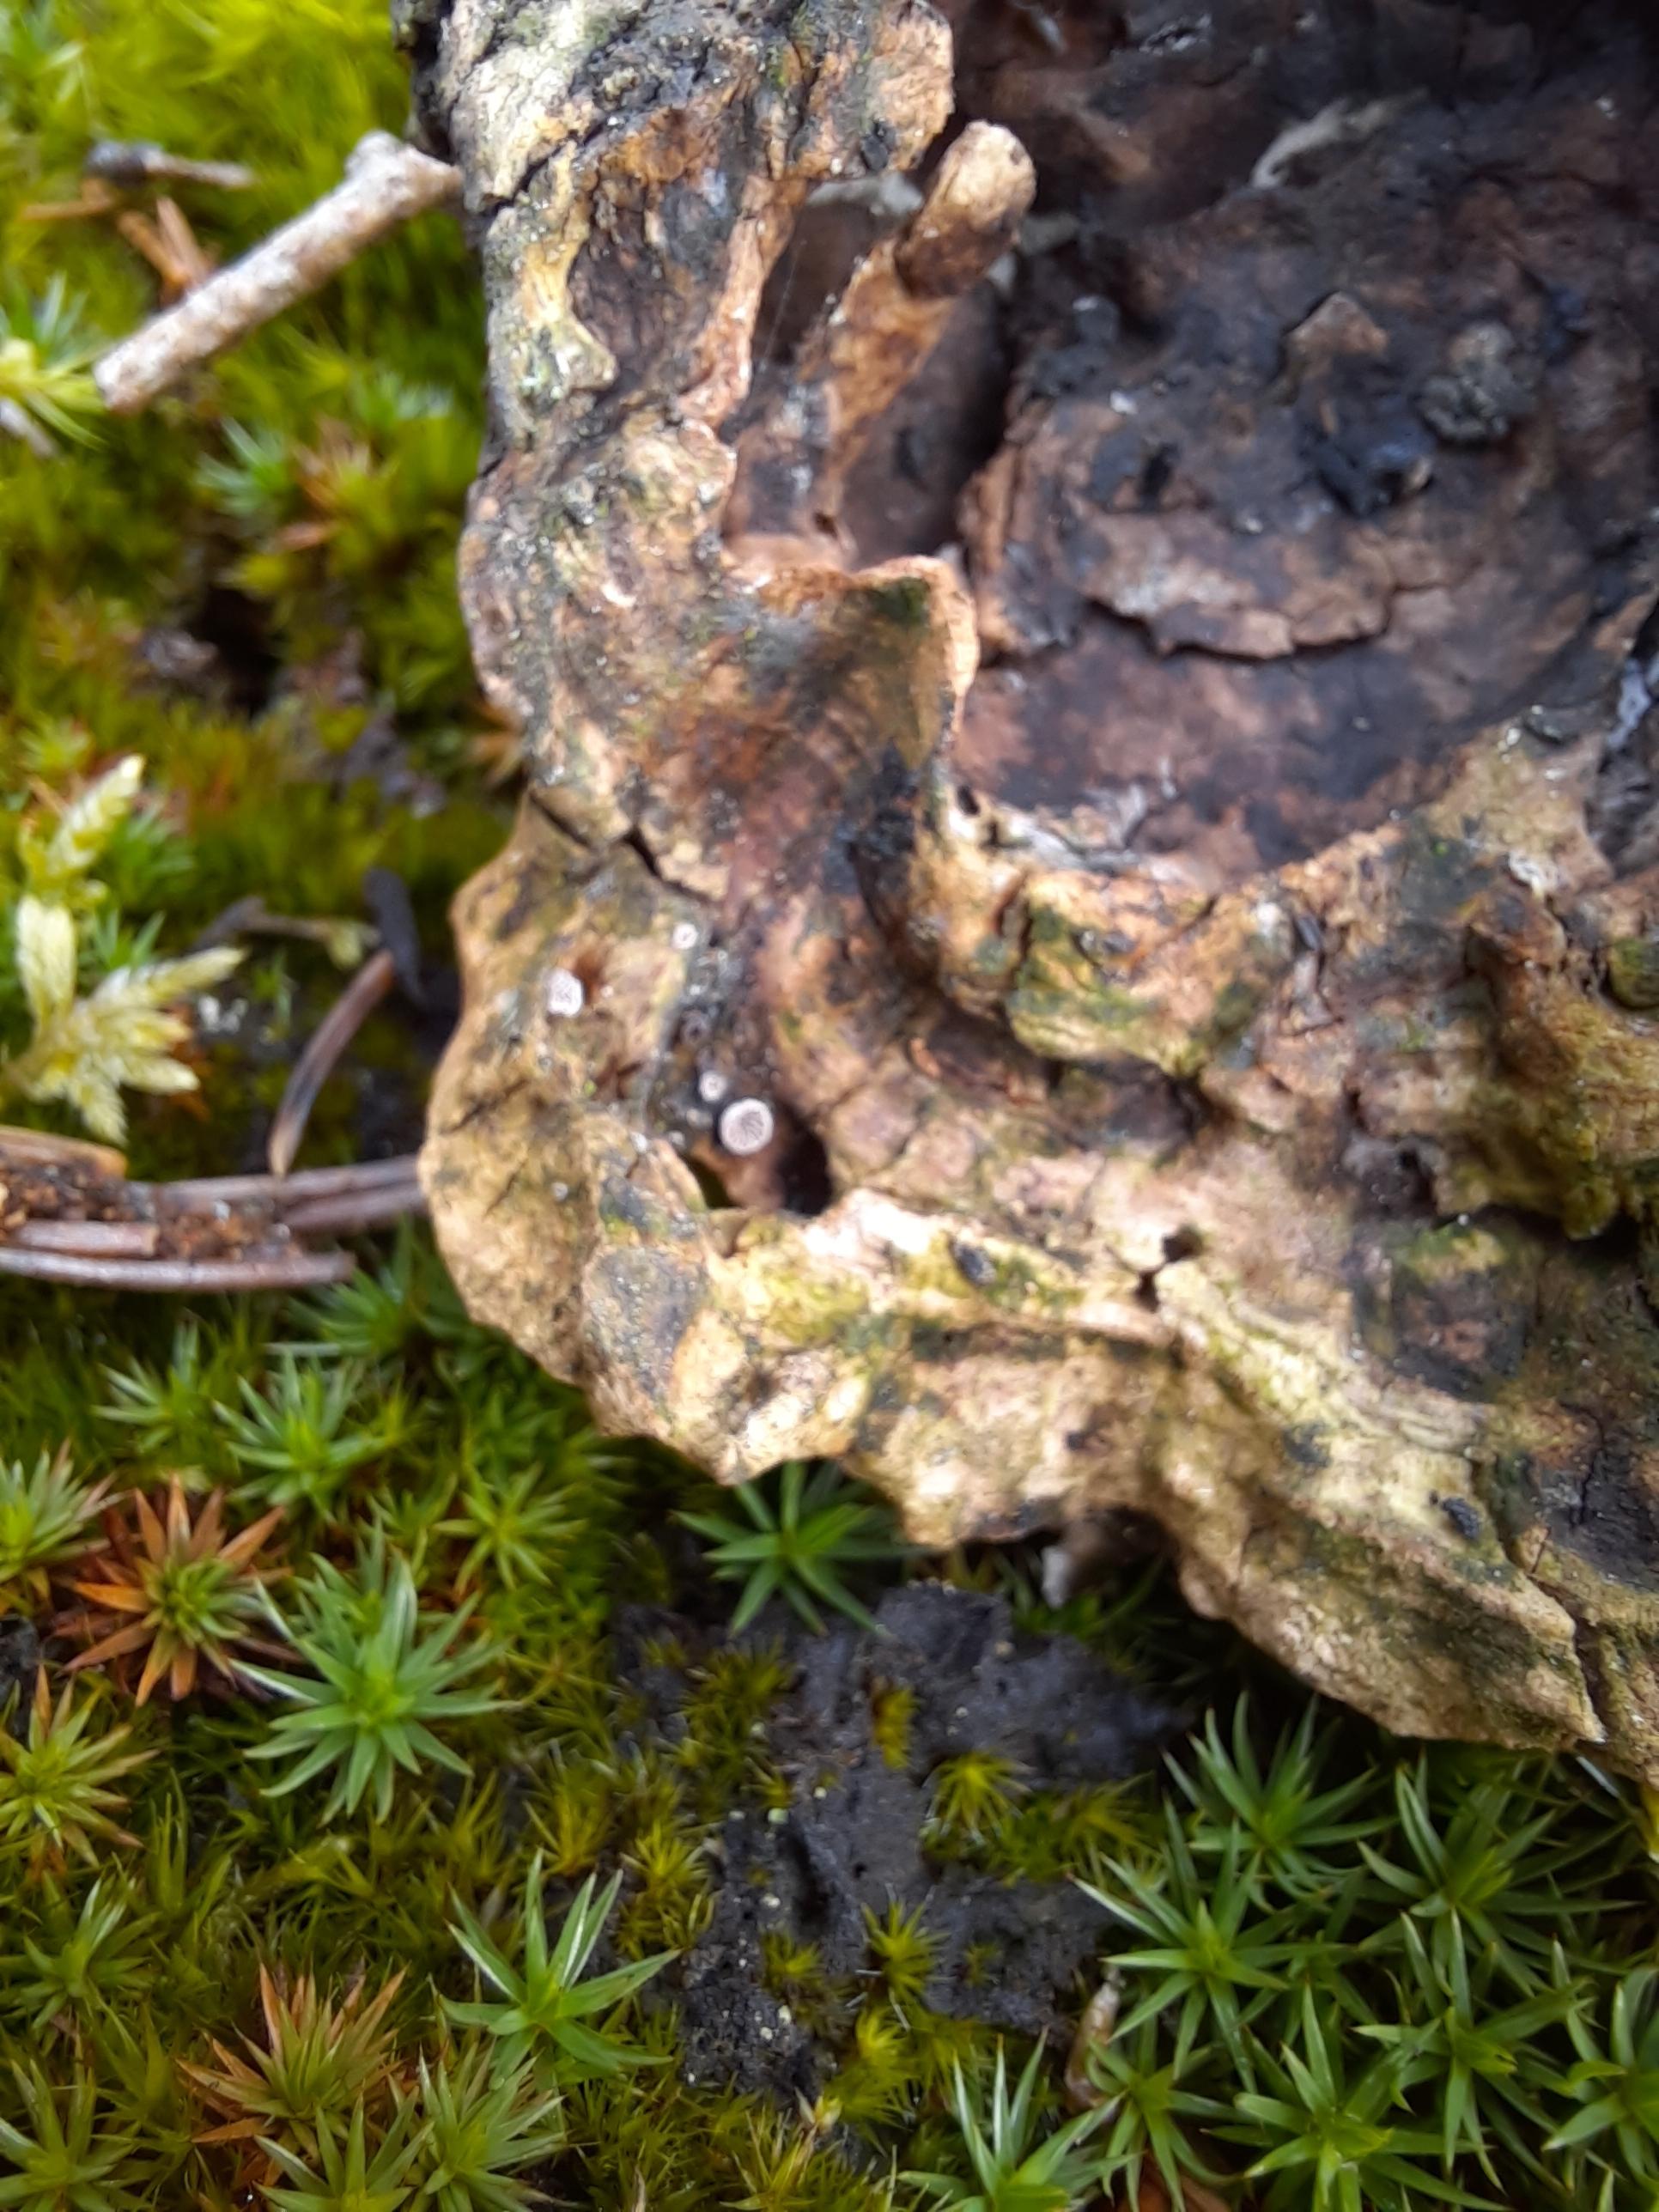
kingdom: Fungi
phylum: Basidiomycota
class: Agaricomycetes
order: Agaricales
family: Pleurotaceae
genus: Resupinatus
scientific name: Resupinatus applicatus
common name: lysfiltet barkhat
